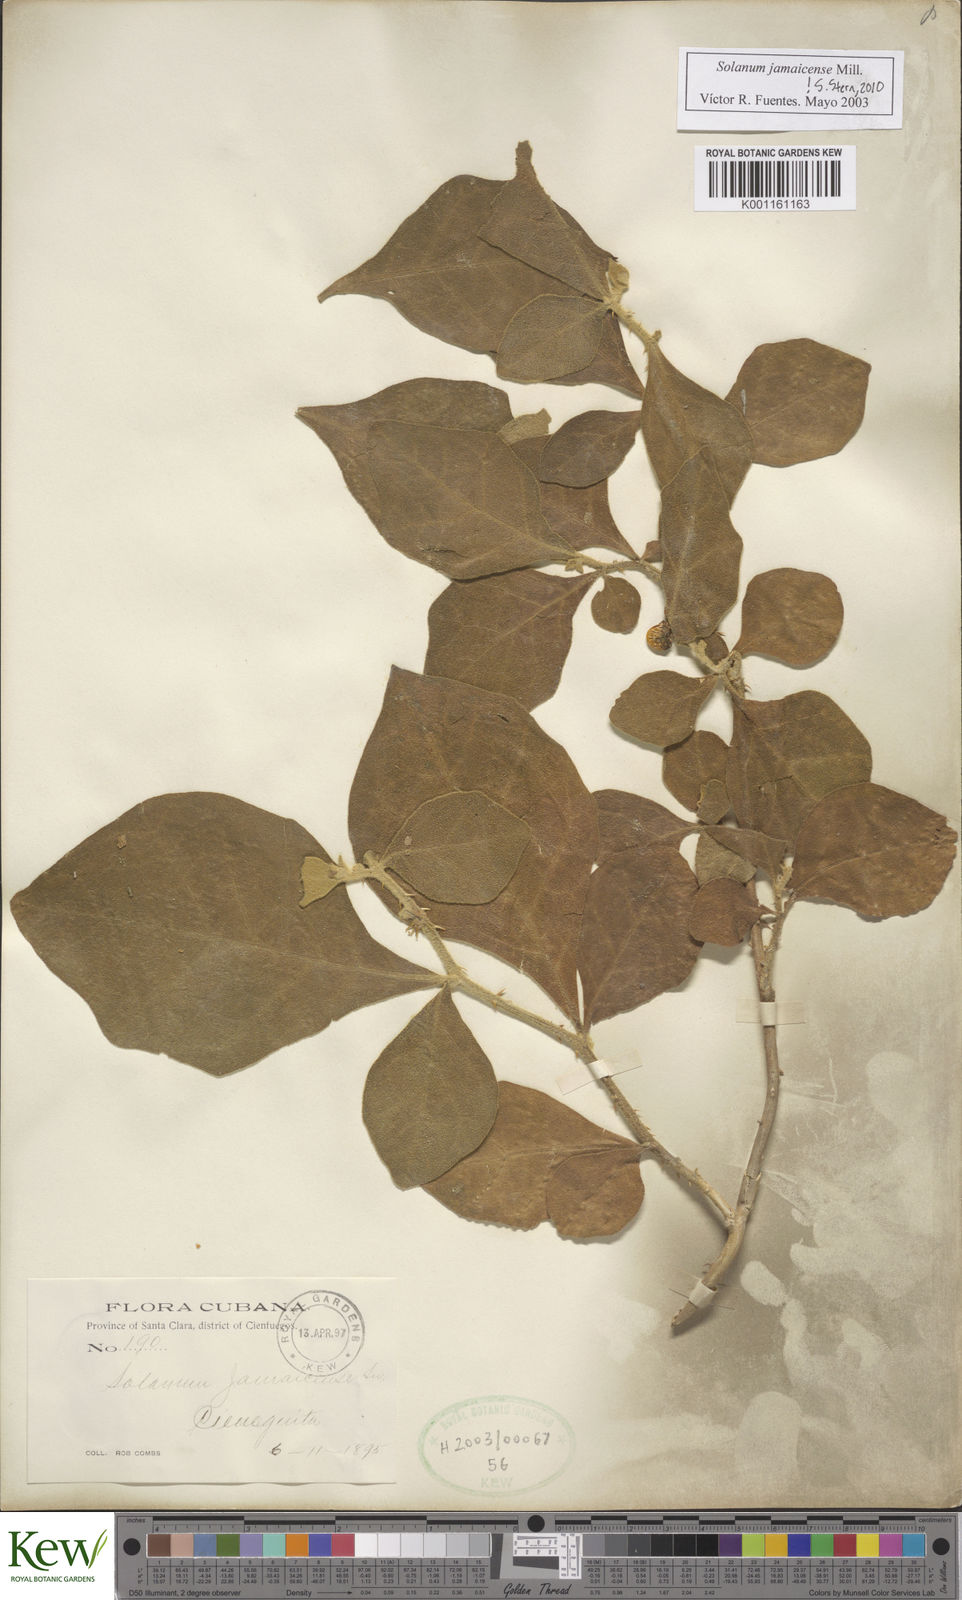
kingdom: Plantae
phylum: Tracheophyta
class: Magnoliopsida
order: Solanales
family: Solanaceae
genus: Solanum
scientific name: Solanum jamaicense
